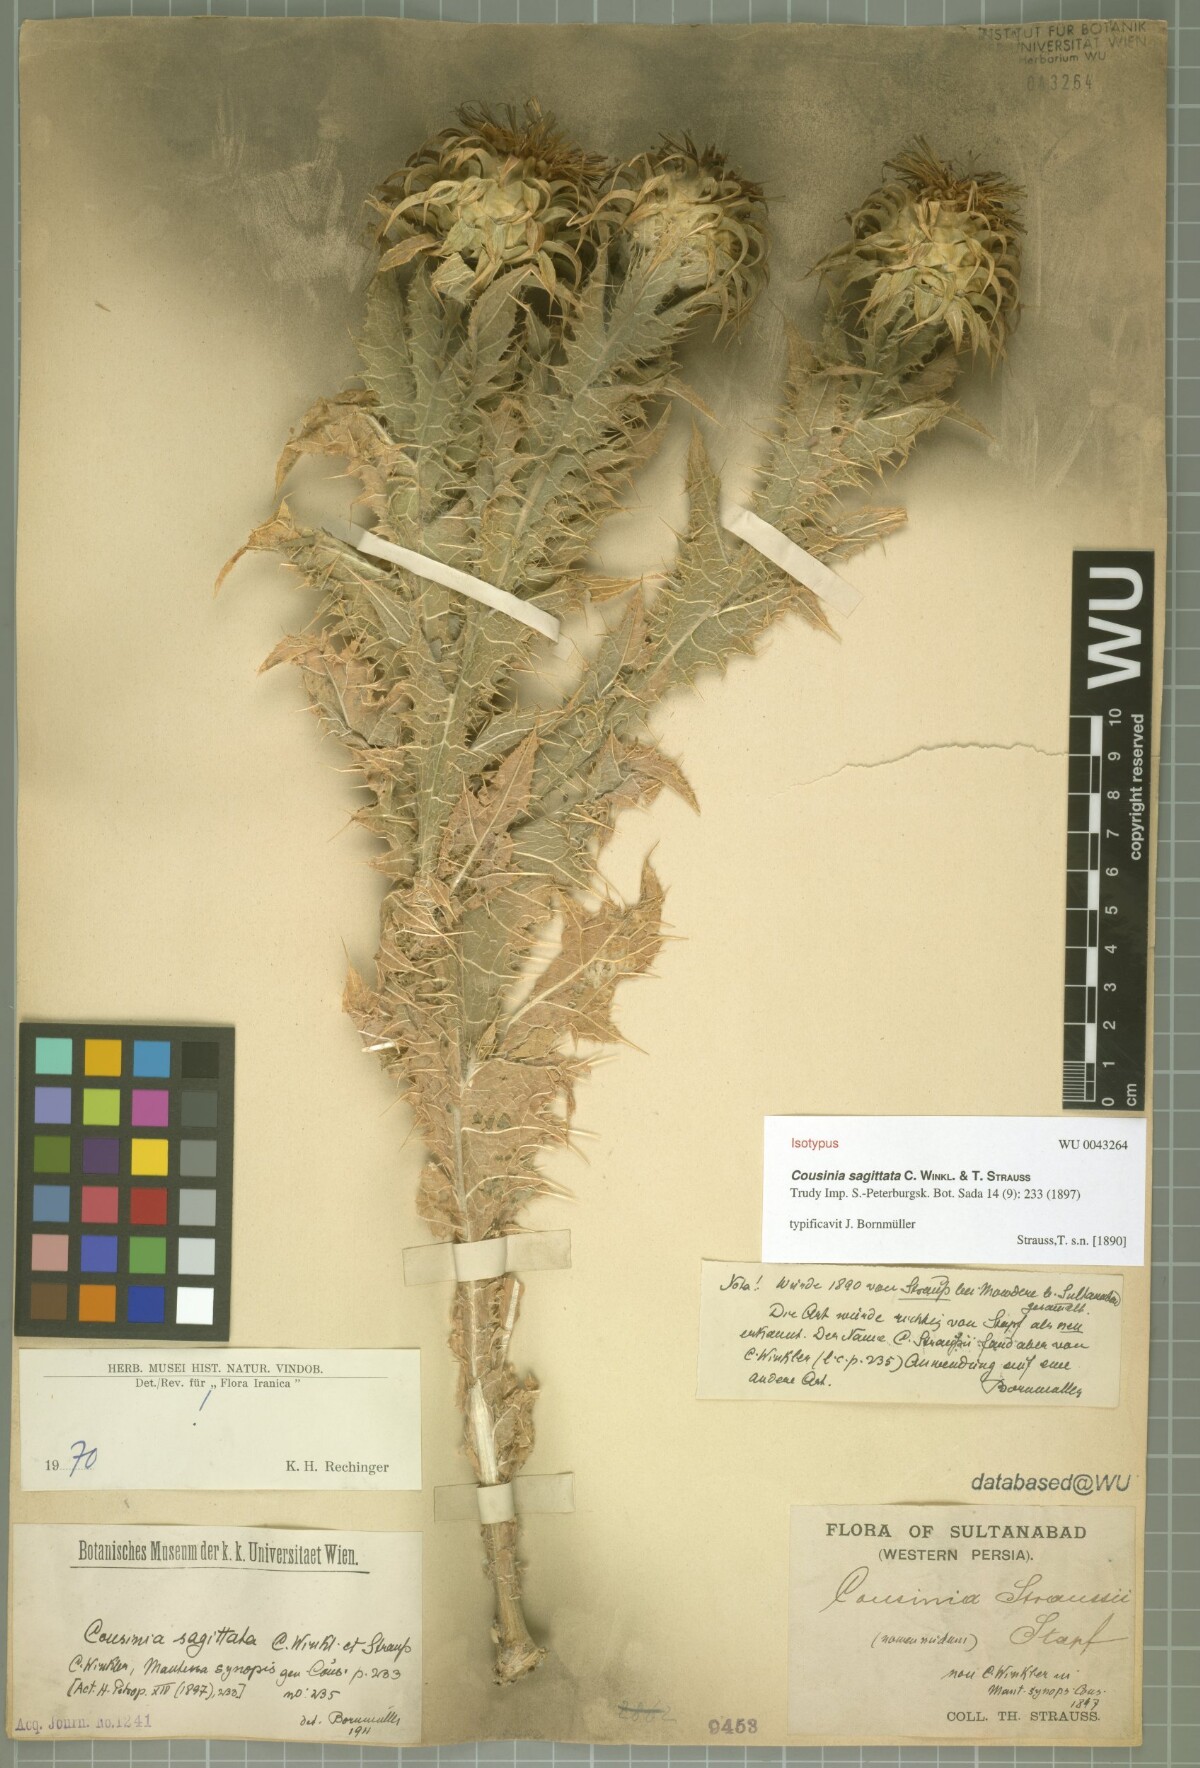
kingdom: Plantae
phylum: Tracheophyta
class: Magnoliopsida
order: Asterales
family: Asteraceae
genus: Cousinia
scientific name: Cousinia sagittata
